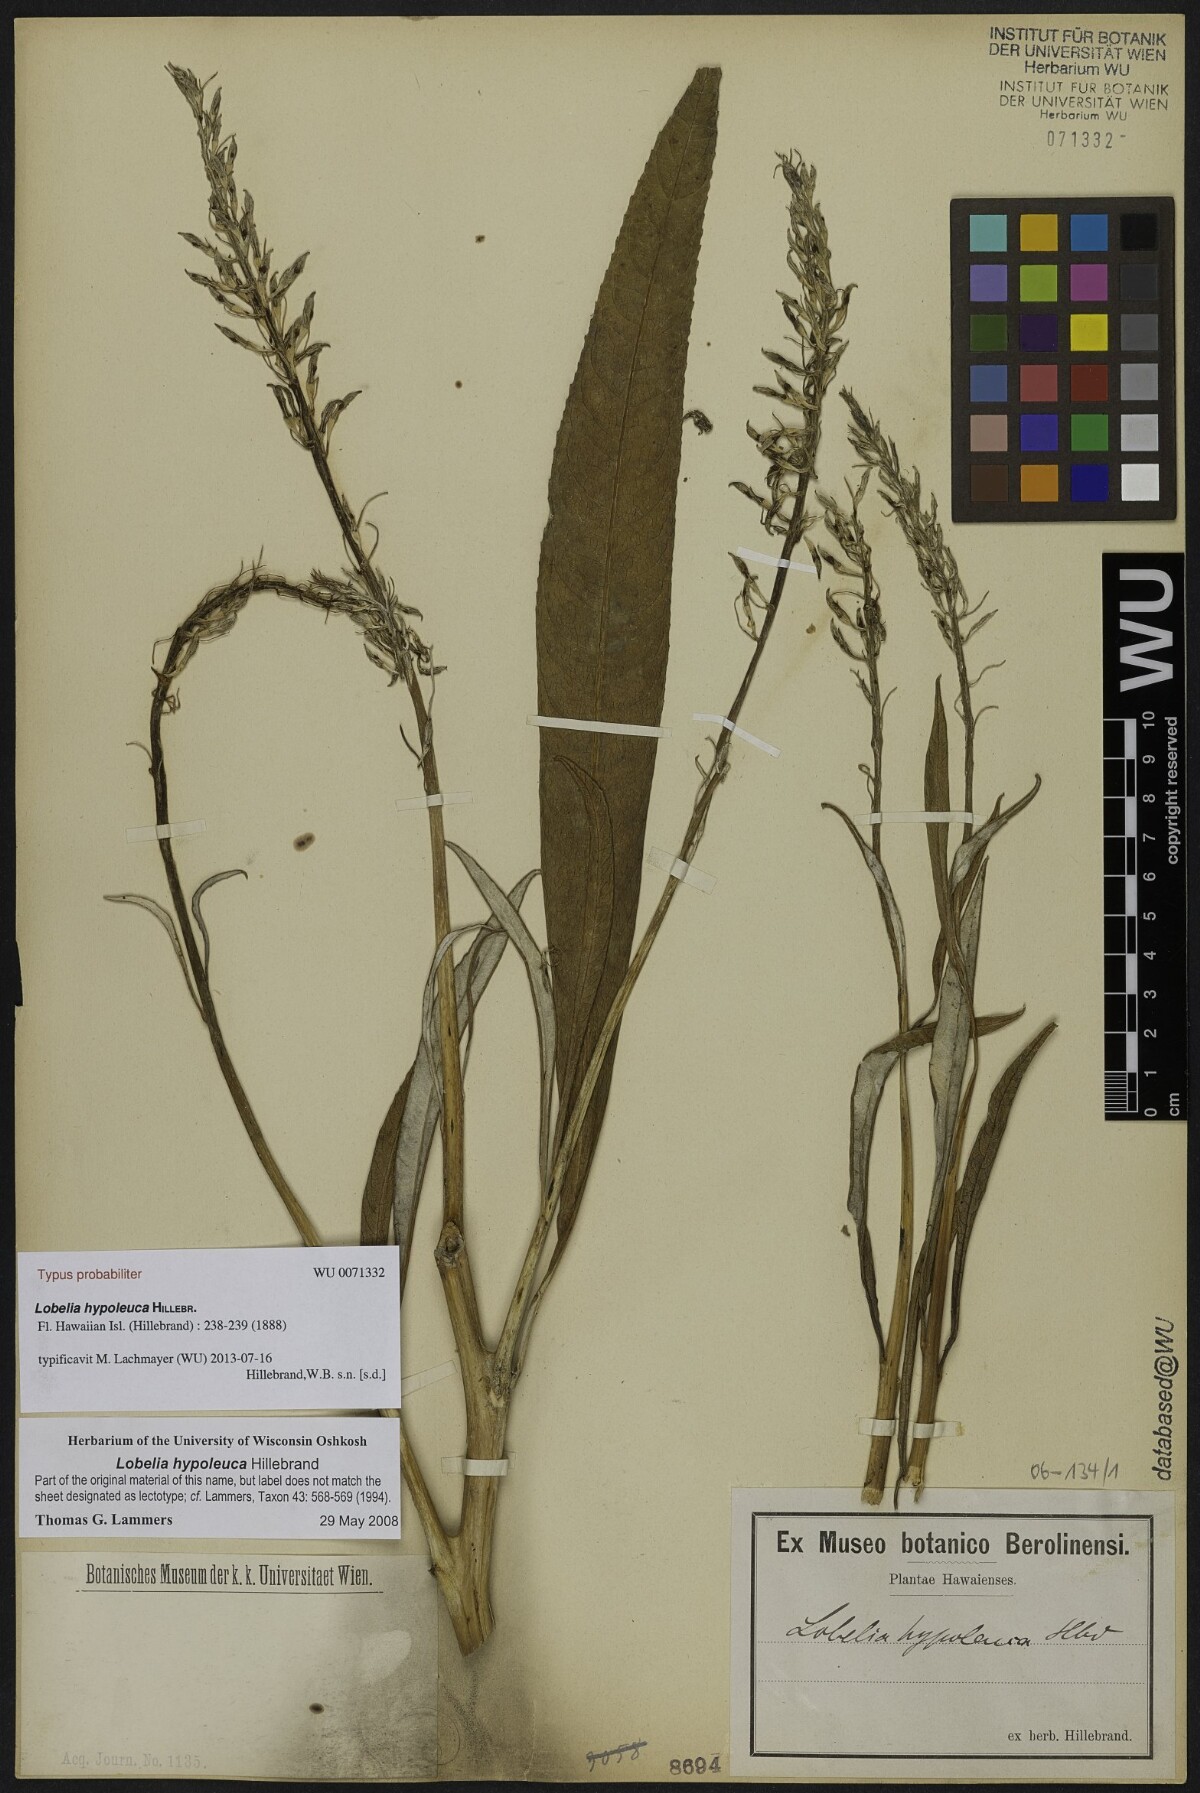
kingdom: Plantae
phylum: Tracheophyta
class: Magnoliopsida
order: Asterales
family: Campanulaceae
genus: Lobelia
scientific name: Lobelia hypoleuca
